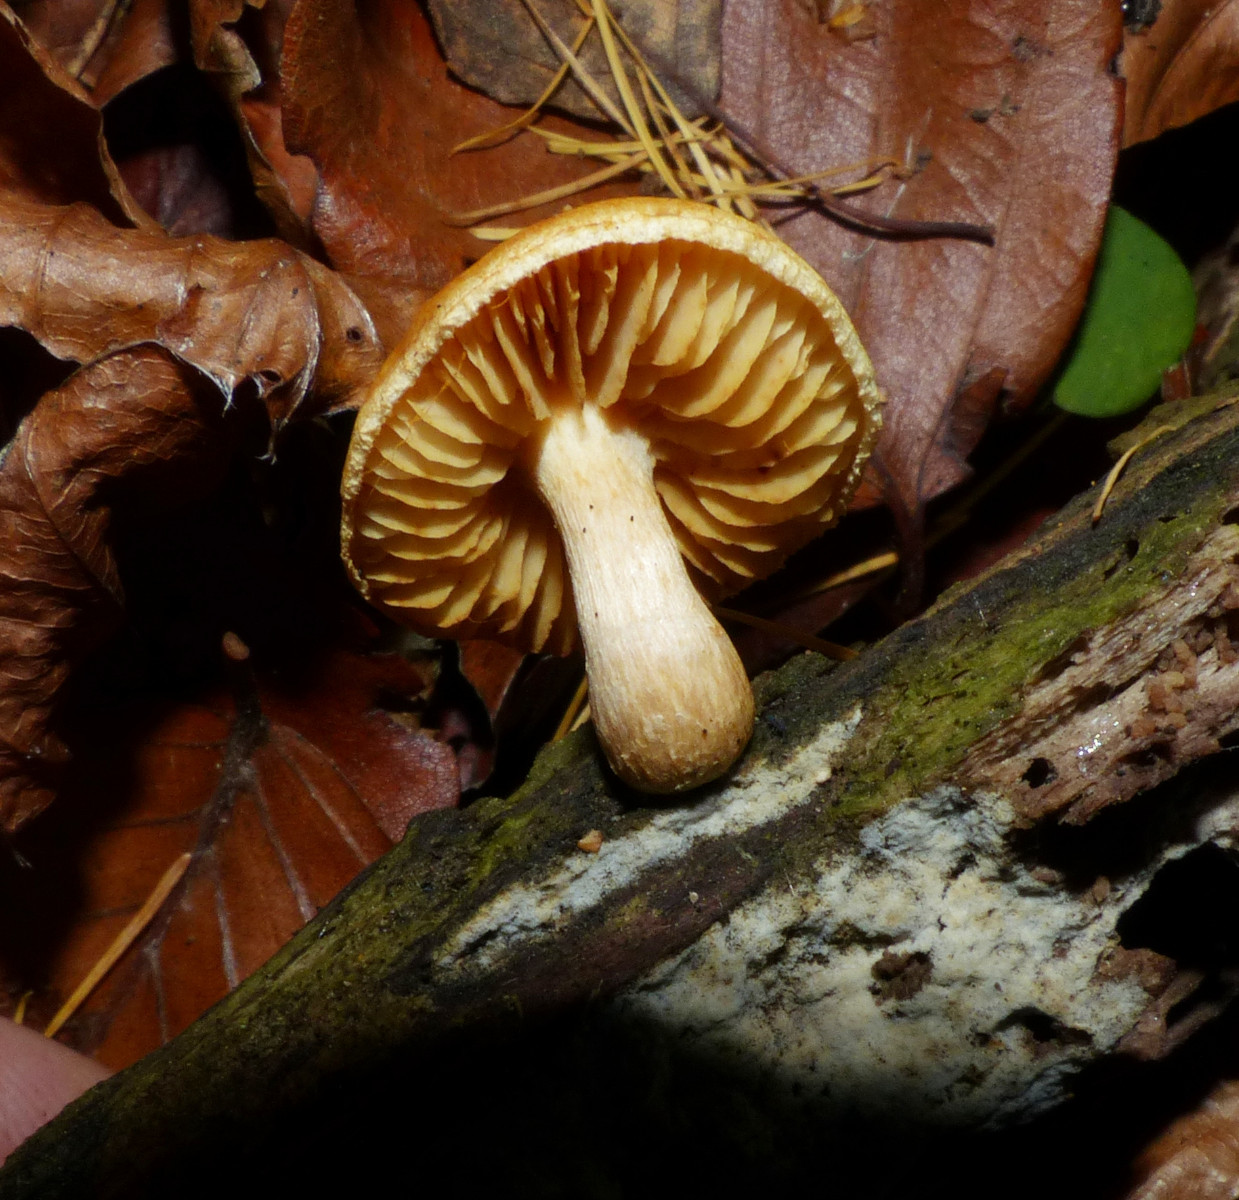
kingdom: Fungi
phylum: Basidiomycota
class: Agaricomycetes
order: Agaricales
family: Hymenogastraceae
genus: Gymnopilus
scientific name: Gymnopilus
